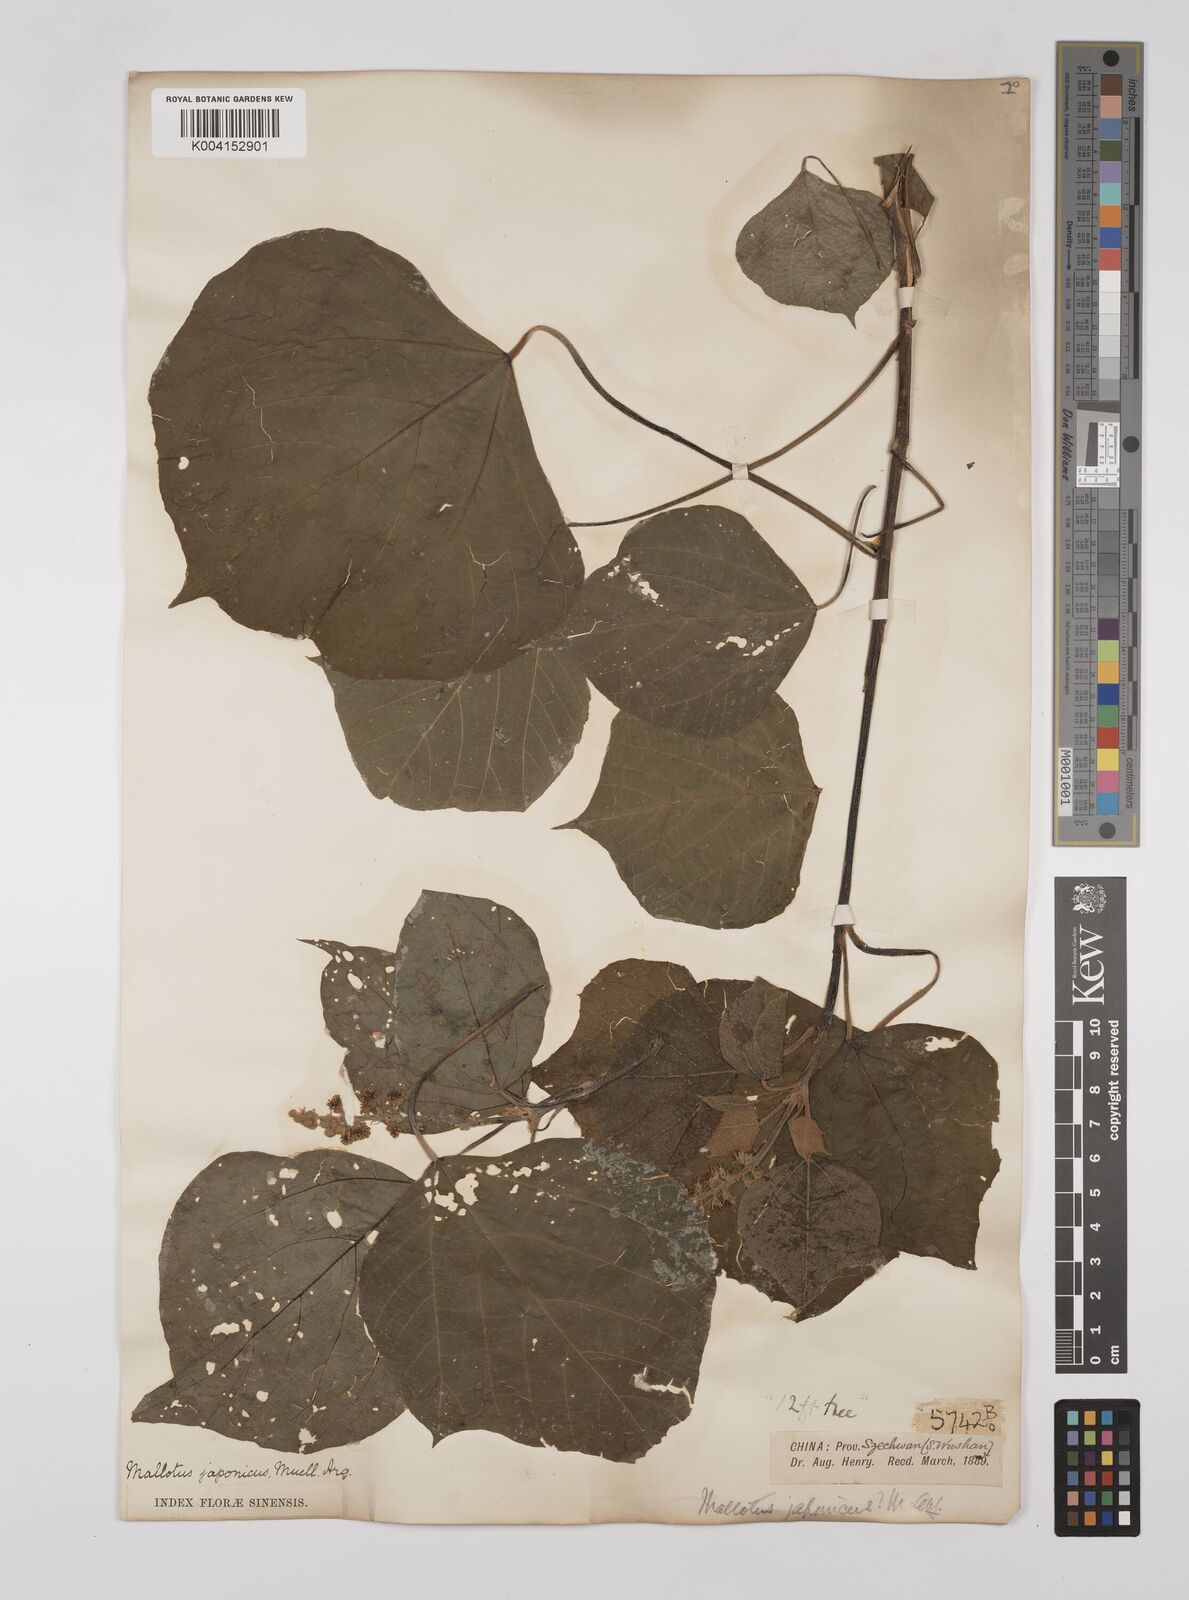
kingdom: Plantae
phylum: Tracheophyta
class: Magnoliopsida
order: Malpighiales
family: Euphorbiaceae
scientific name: Euphorbiaceae
